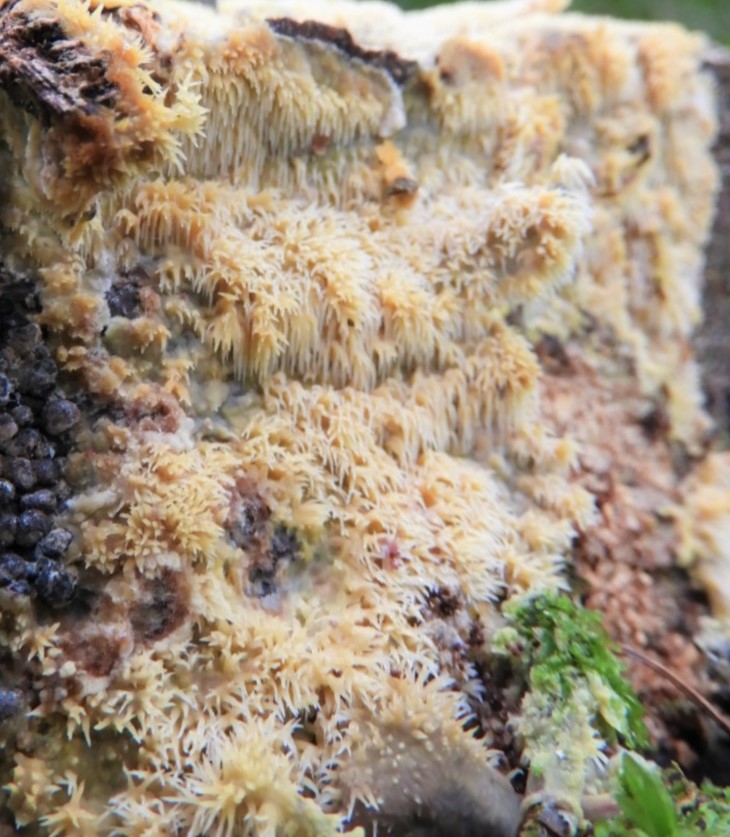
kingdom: Fungi
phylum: Basidiomycota
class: Agaricomycetes
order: Polyporales
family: Meruliaceae
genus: Mycoacia
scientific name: Mycoacia uda
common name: citrongul vokspig
